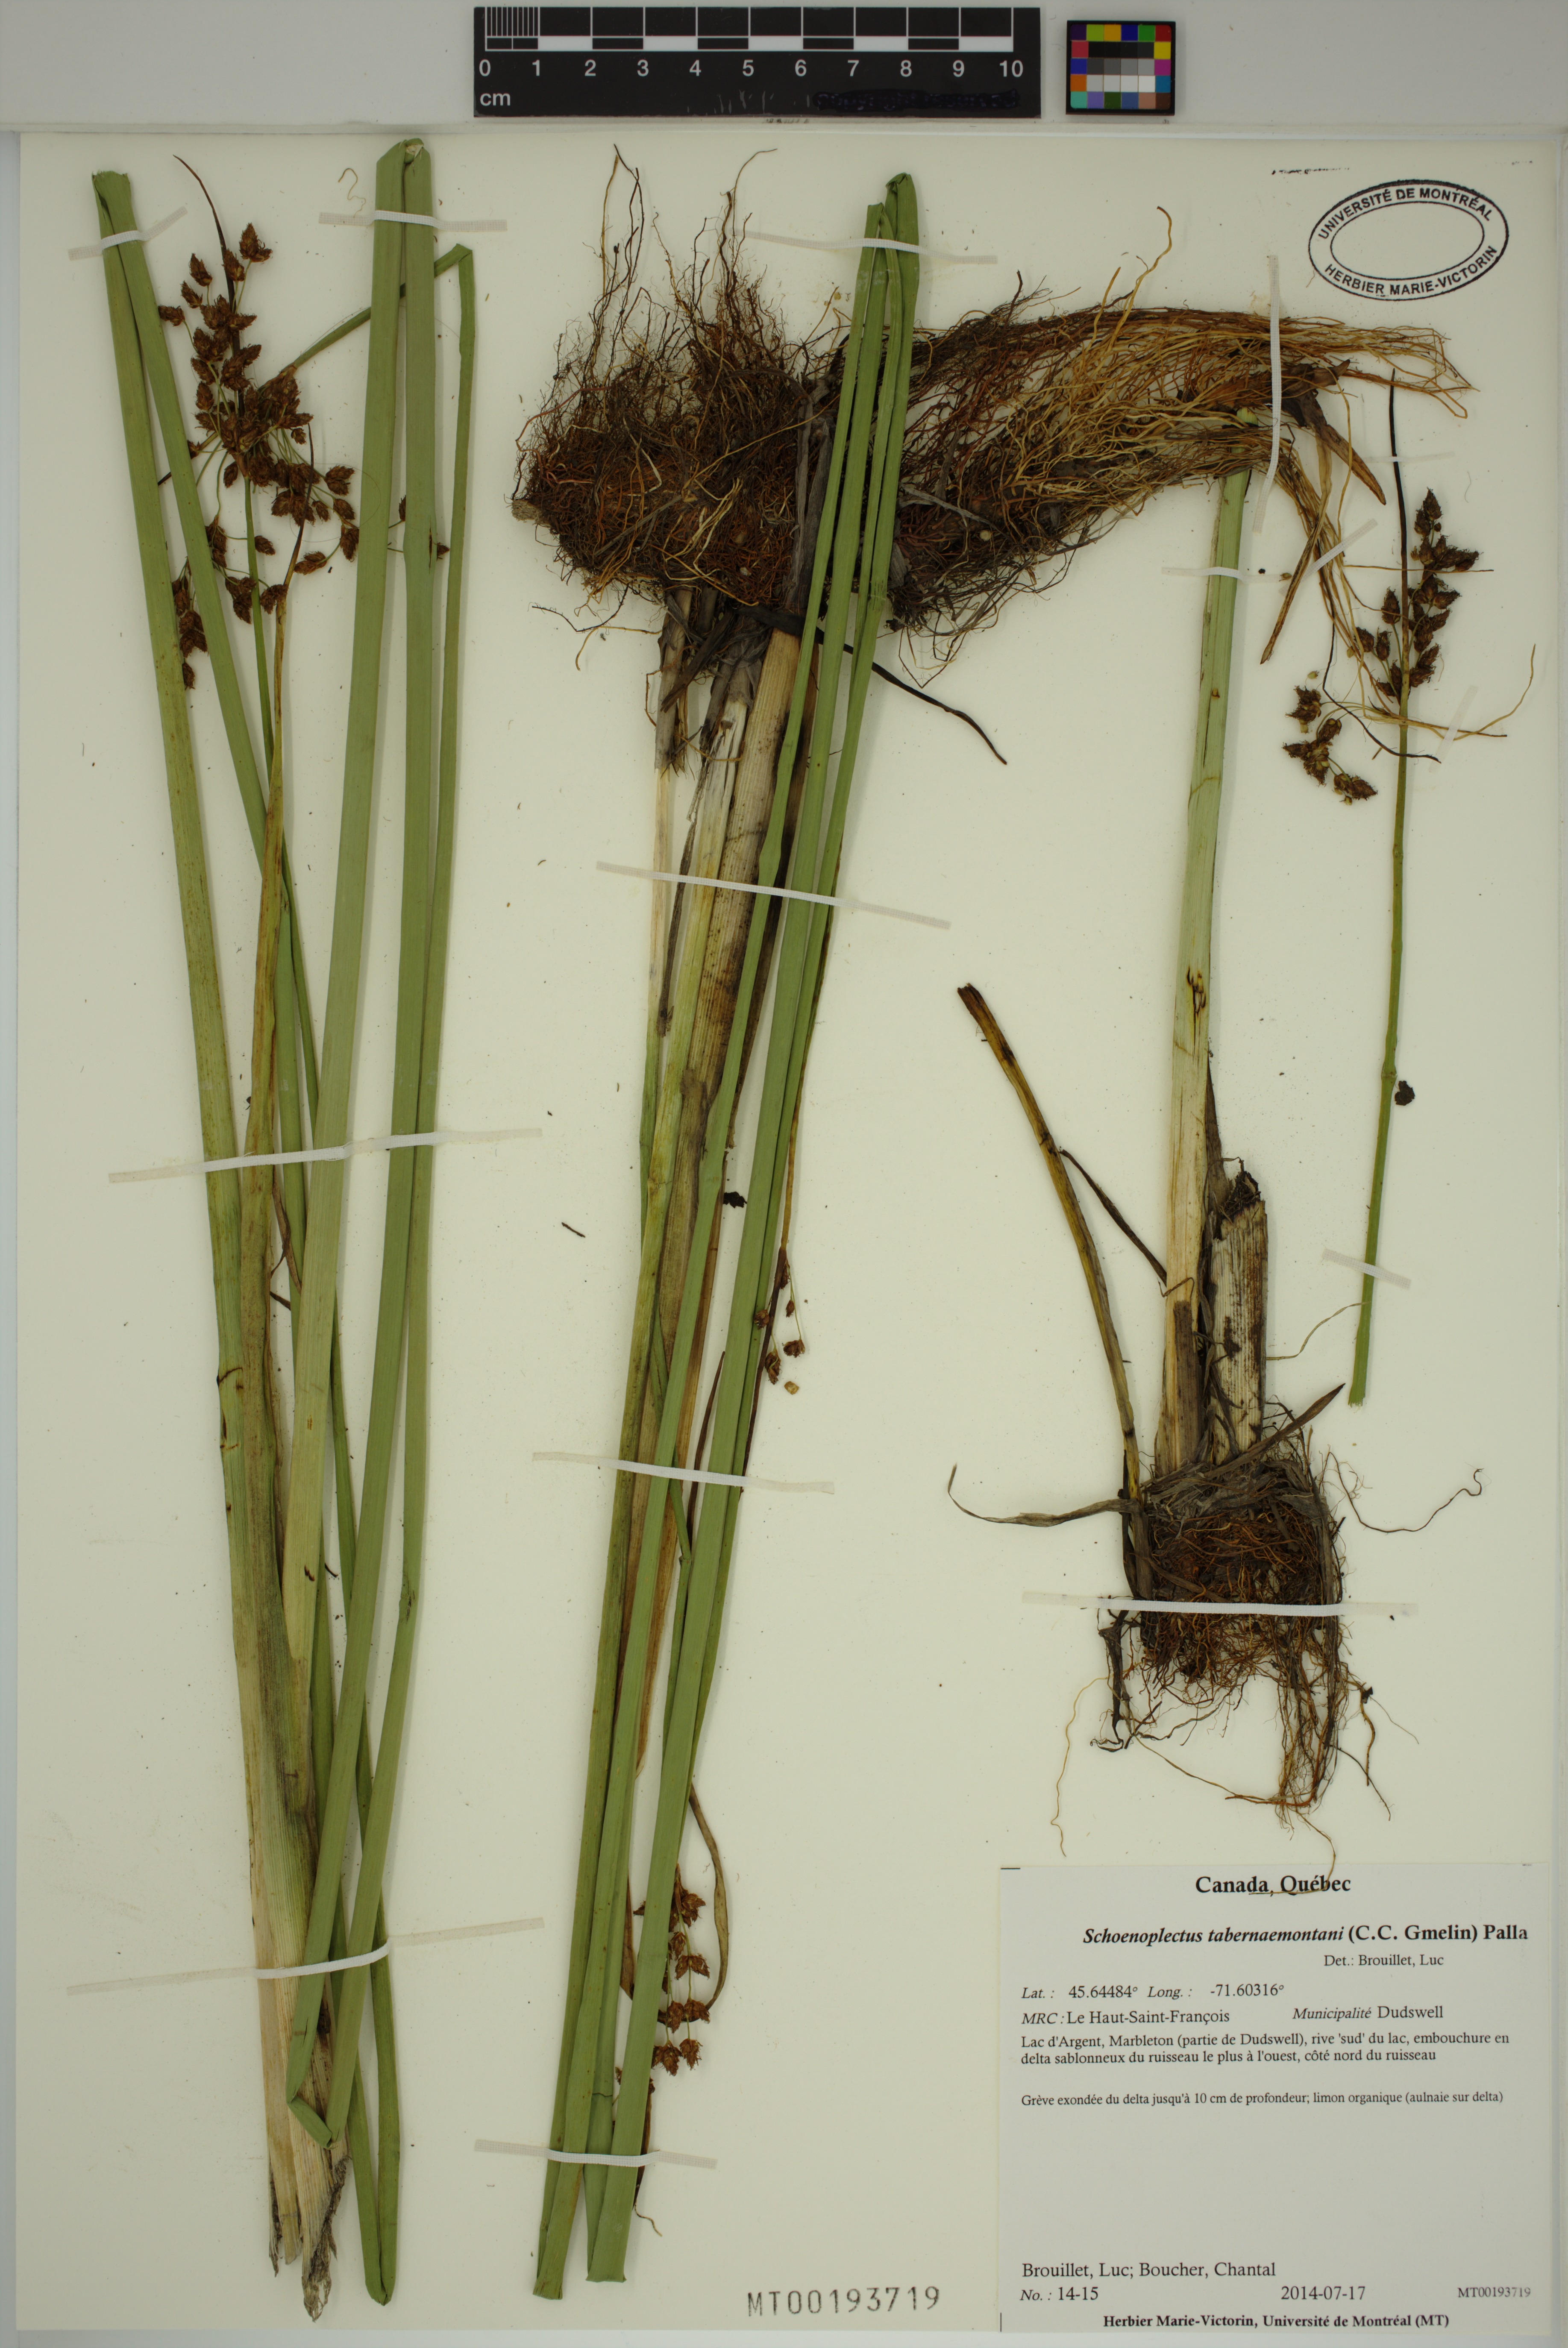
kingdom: Plantae
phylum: Tracheophyta
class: Liliopsida
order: Poales
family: Cyperaceae
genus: Schoenoplectus
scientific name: Schoenoplectus tabernaemontani
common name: Grey club-rush
